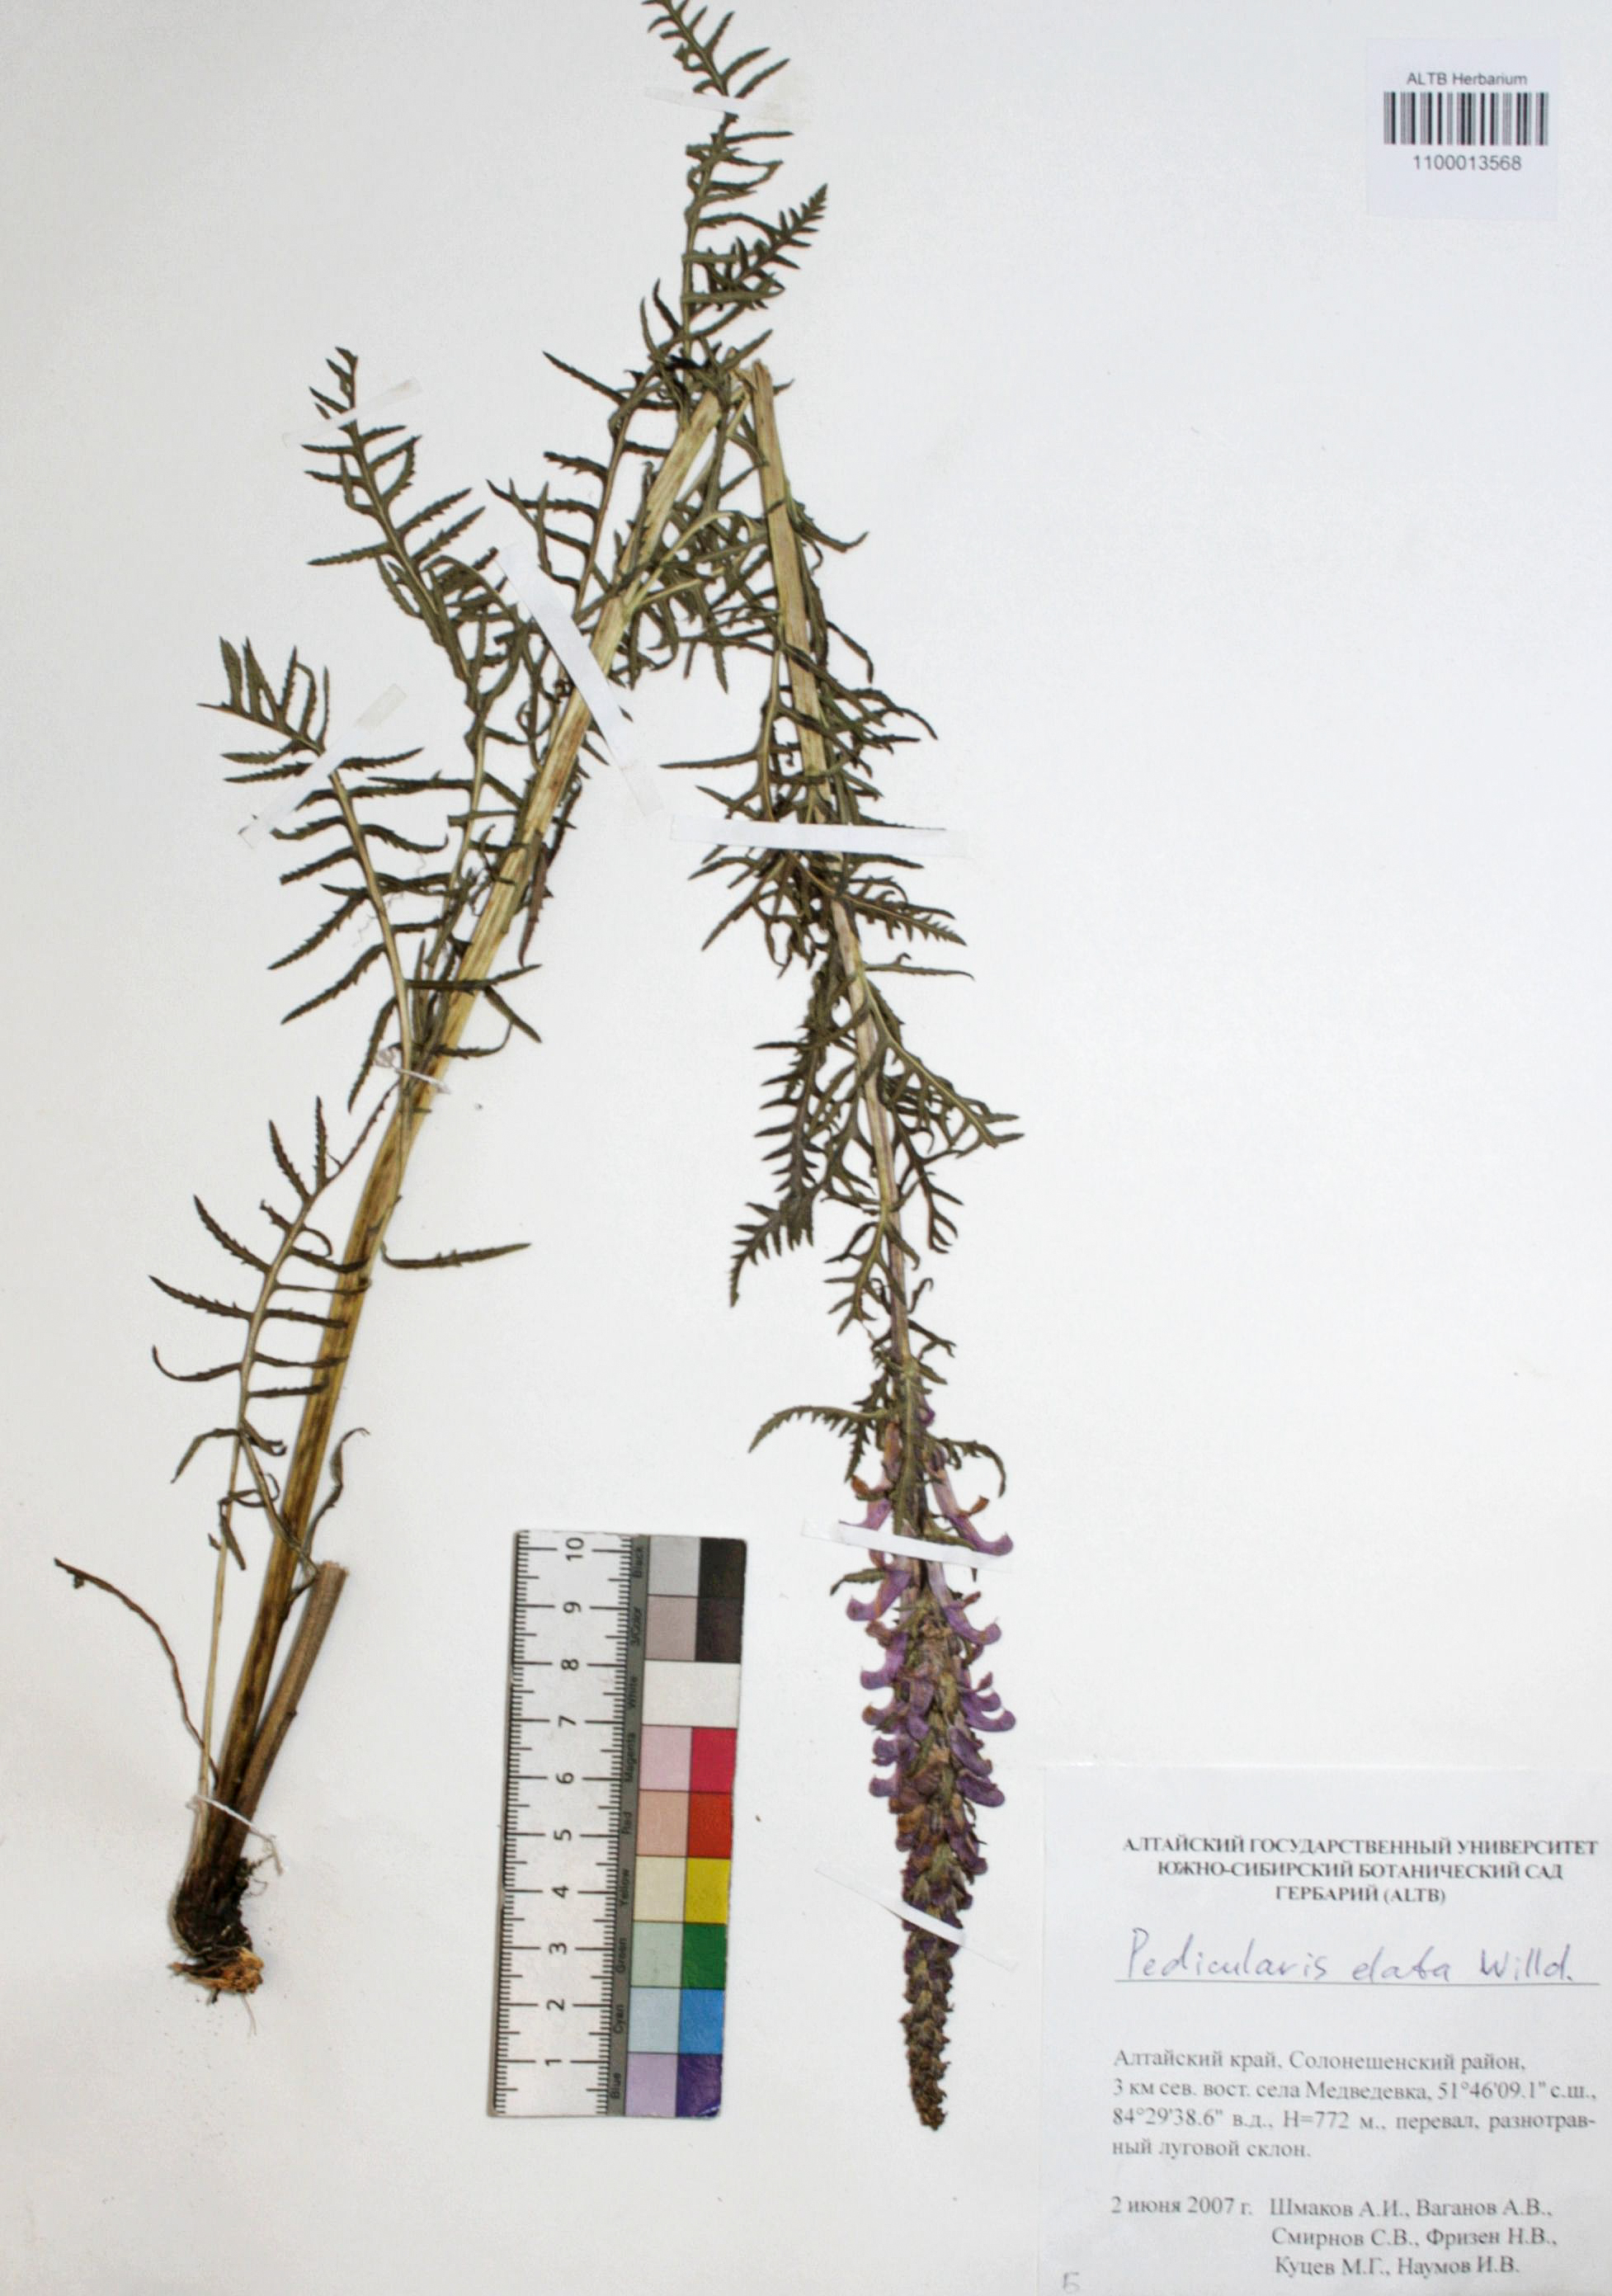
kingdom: Plantae
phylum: Tracheophyta
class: Magnoliopsida
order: Lamiales
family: Orobanchaceae
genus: Pedicularis
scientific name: Pedicularis elata
